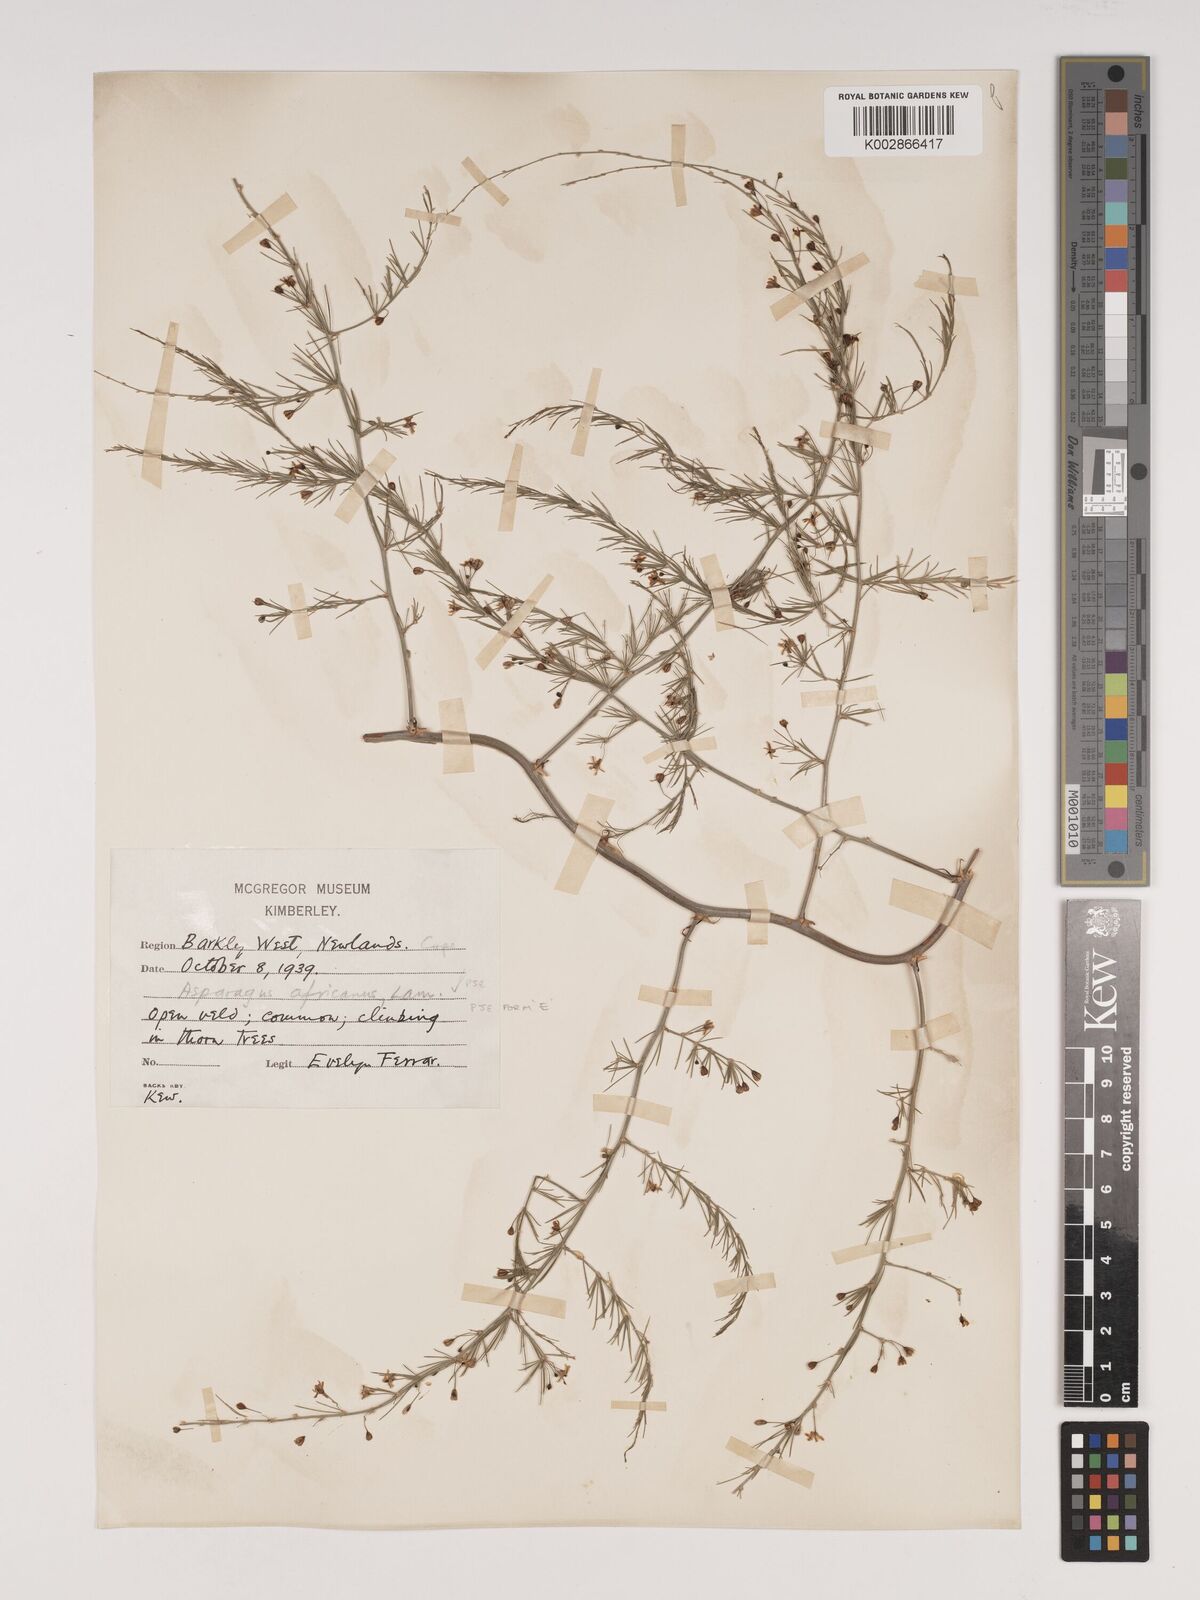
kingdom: Plantae
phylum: Tracheophyta
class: Liliopsida
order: Asparagales
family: Asparagaceae
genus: Asparagus
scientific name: Asparagus africanus
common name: Asparagus-fern
